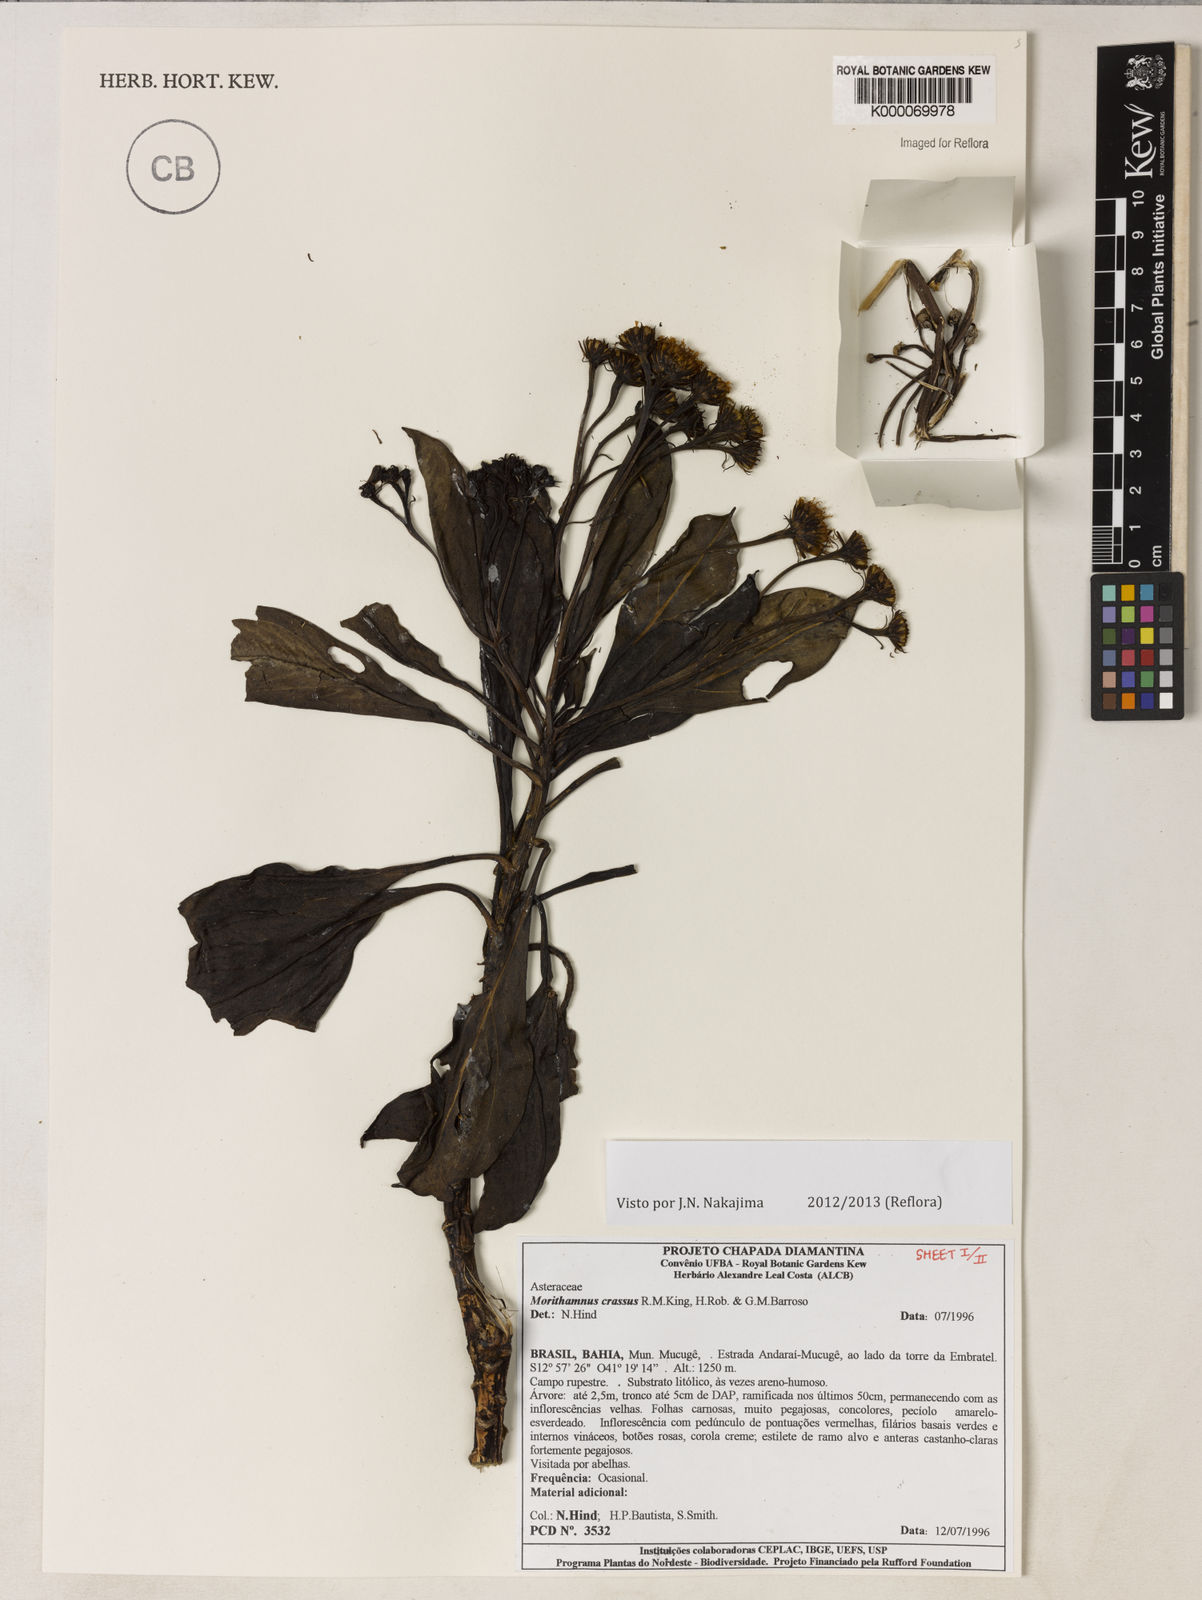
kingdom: Plantae
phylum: Tracheophyta
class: Magnoliopsida
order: Asterales
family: Asteraceae
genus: Morithamnus
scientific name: Morithamnus crassus
